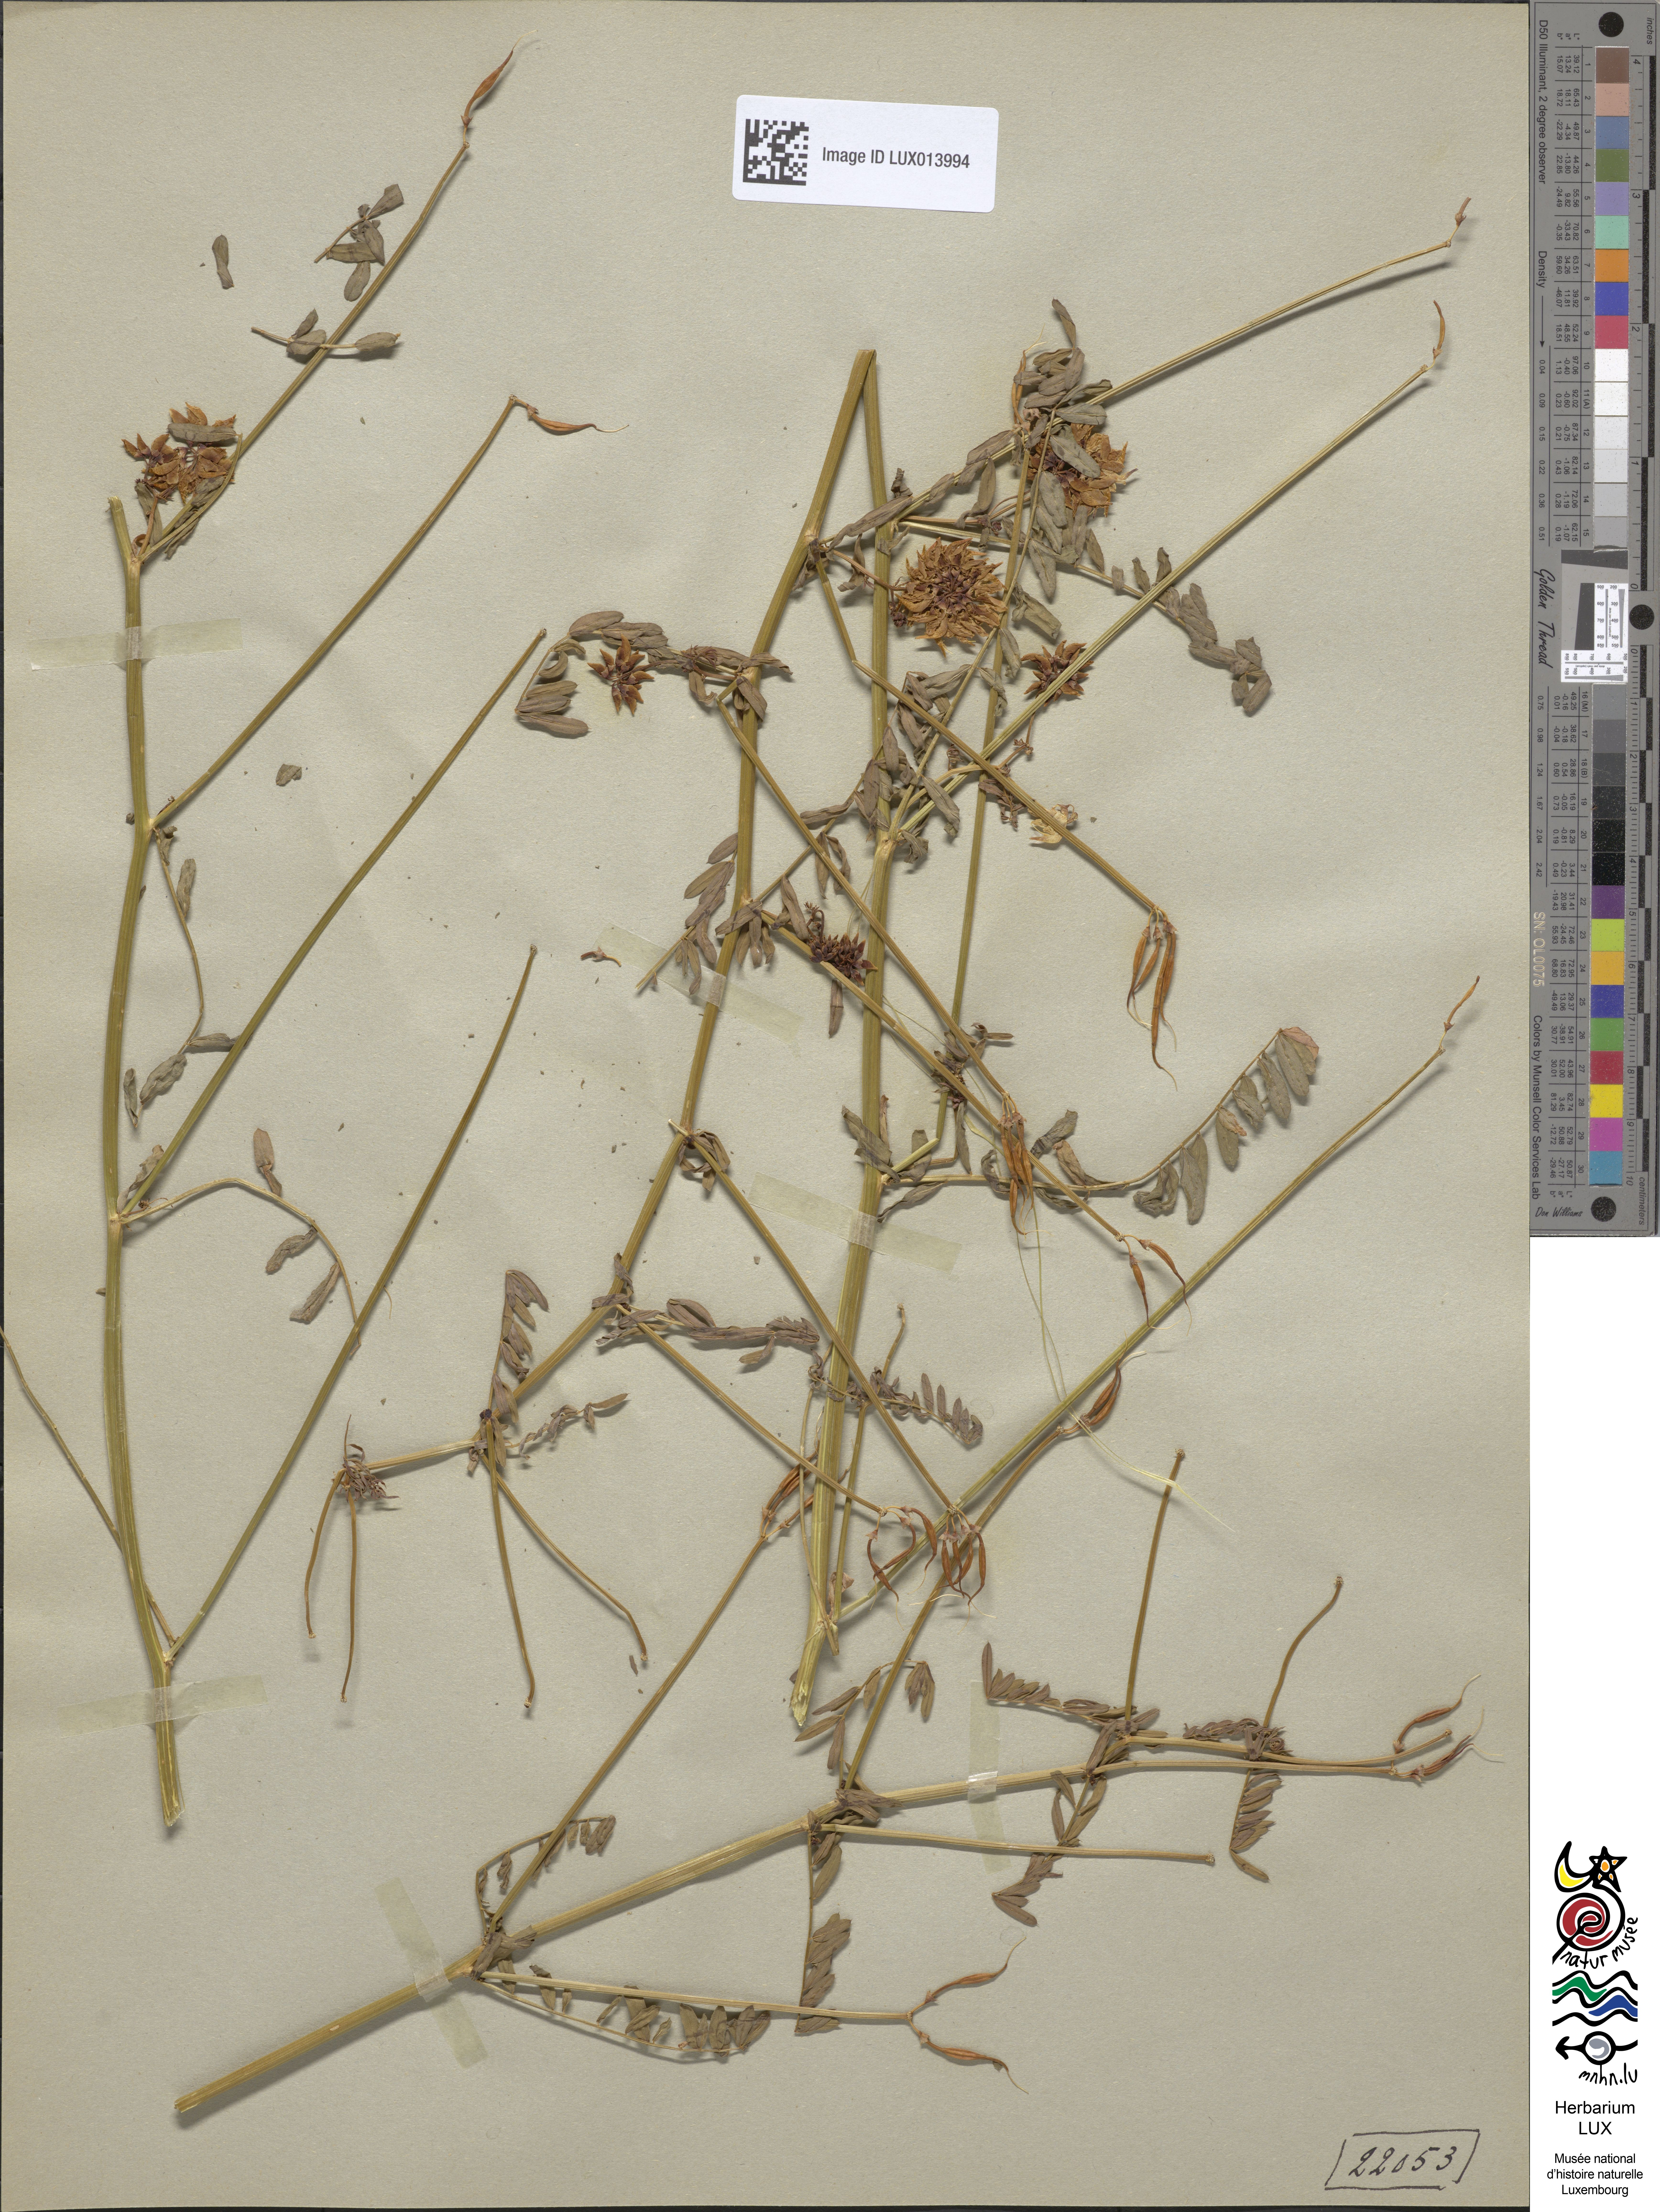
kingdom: Plantae
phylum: Tracheophyta
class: Magnoliopsida
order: Fabales
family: Fabaceae
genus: Coronilla
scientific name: Coronilla varia
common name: Crownvetch
